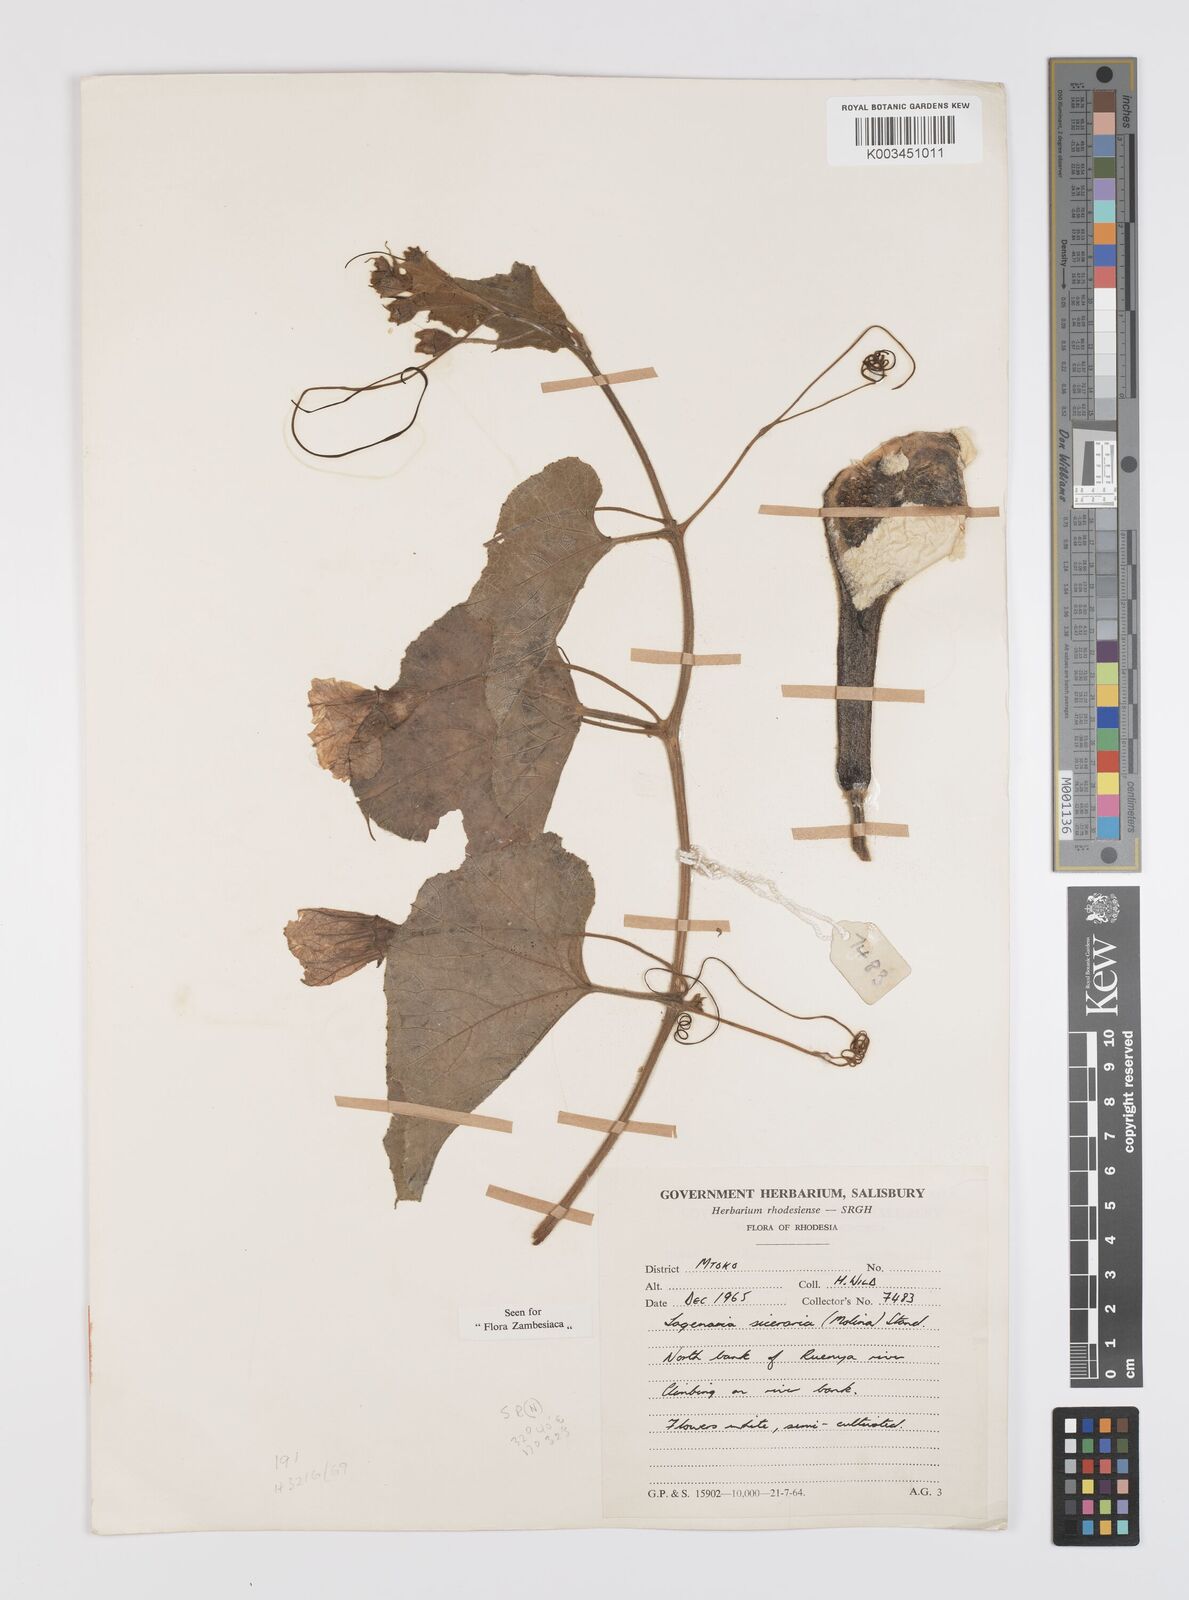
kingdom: Plantae
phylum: Tracheophyta
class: Magnoliopsida
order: Cucurbitales
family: Cucurbitaceae
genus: Lagenaria
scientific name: Lagenaria siceraria
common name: Bottle gourd
